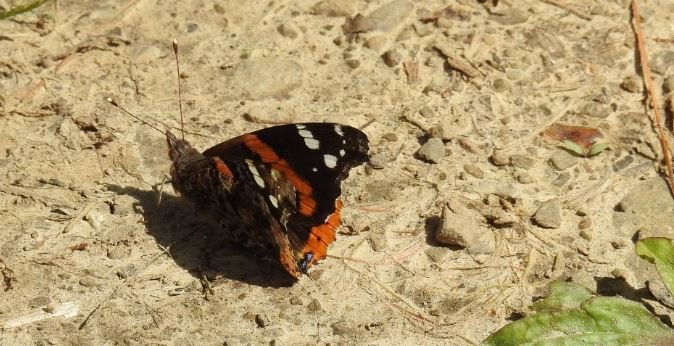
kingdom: Animalia
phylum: Arthropoda
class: Insecta
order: Lepidoptera
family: Nymphalidae
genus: Vanessa
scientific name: Vanessa atalanta
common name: Red Admiral
